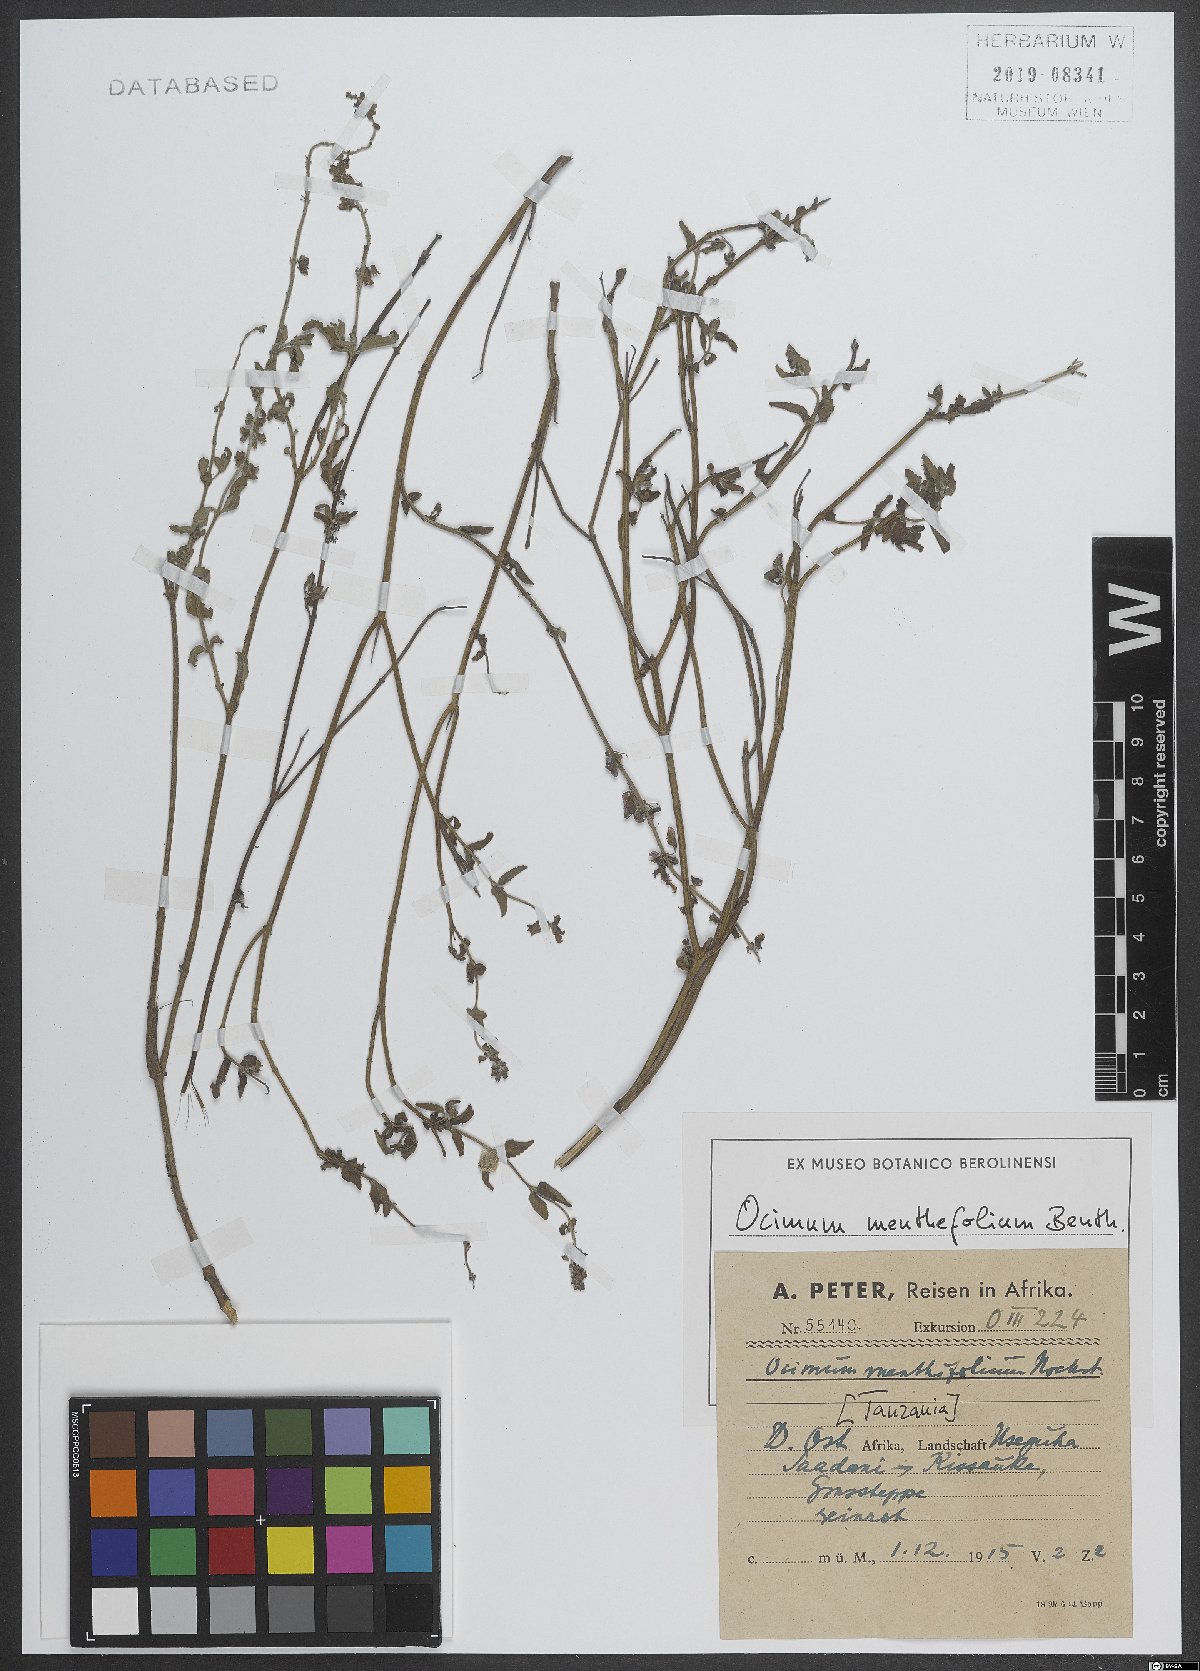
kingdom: Plantae
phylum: Tracheophyta
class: Magnoliopsida
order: Lamiales
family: Lamiaceae
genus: Ocimum
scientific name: Ocimum forskoelei
